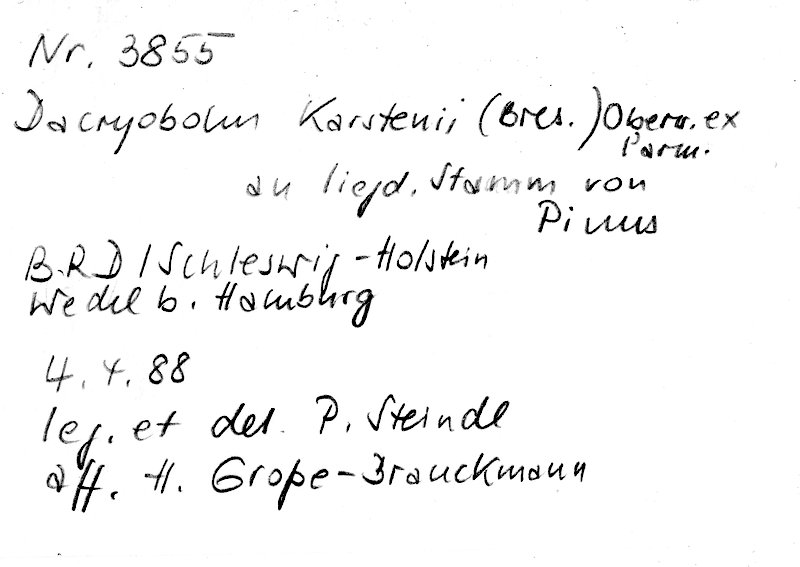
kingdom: Fungi
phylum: Basidiomycota
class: Agaricomycetes
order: Polyporales
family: Dacryobolaceae
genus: Dacryobolus
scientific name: Dacryobolus karstenii
